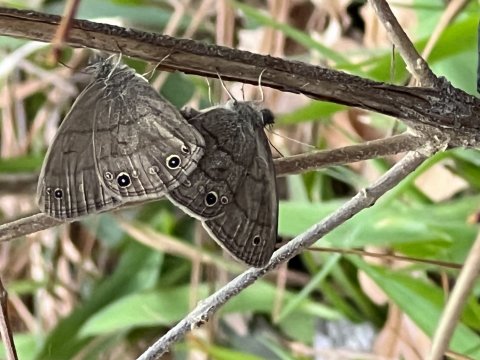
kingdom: Animalia
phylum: Arthropoda
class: Insecta
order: Lepidoptera
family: Nymphalidae
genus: Hermeuptychia
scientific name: Hermeuptychia hermes
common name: Carolina Satyr
